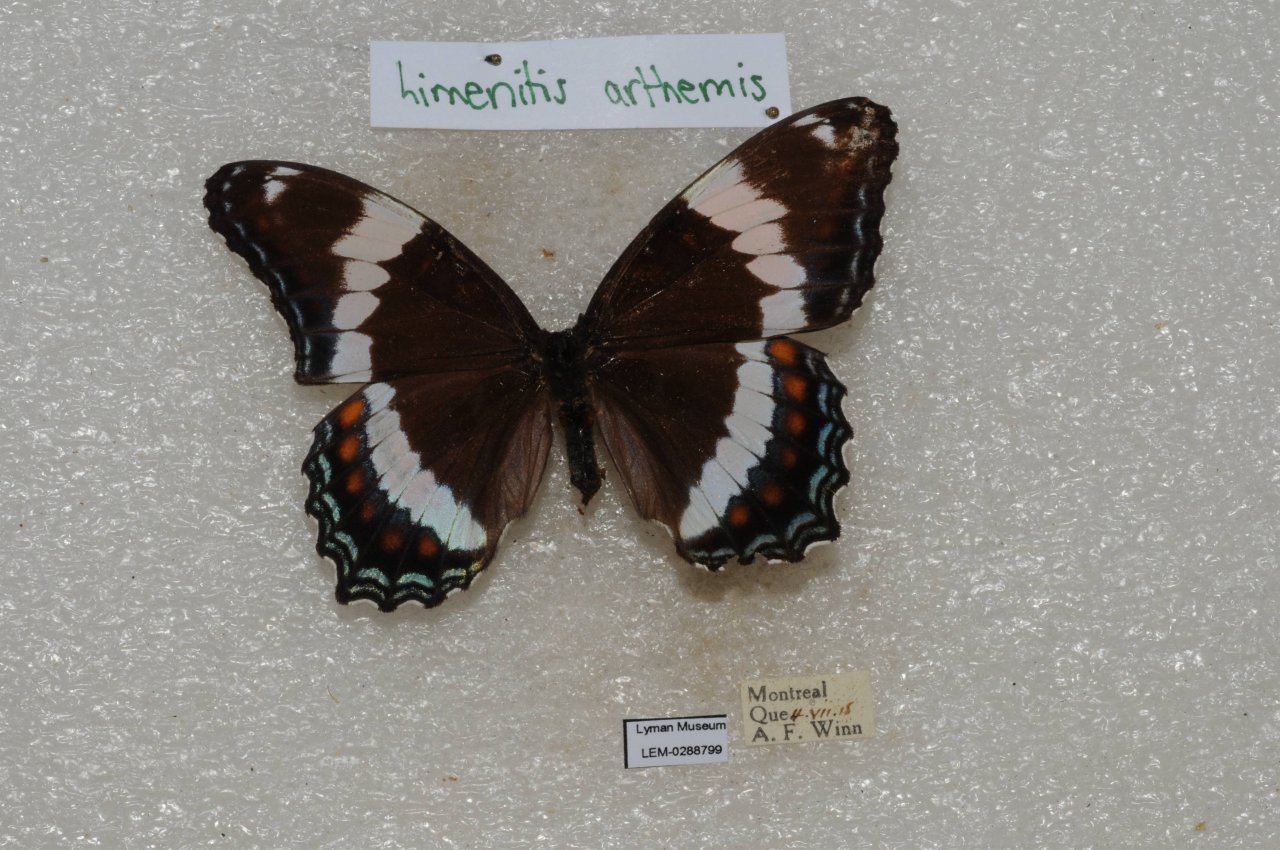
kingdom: Animalia
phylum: Arthropoda
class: Insecta
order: Lepidoptera
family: Nymphalidae
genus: Limenitis
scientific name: Limenitis arthemis
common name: Red-spotted Admiral
